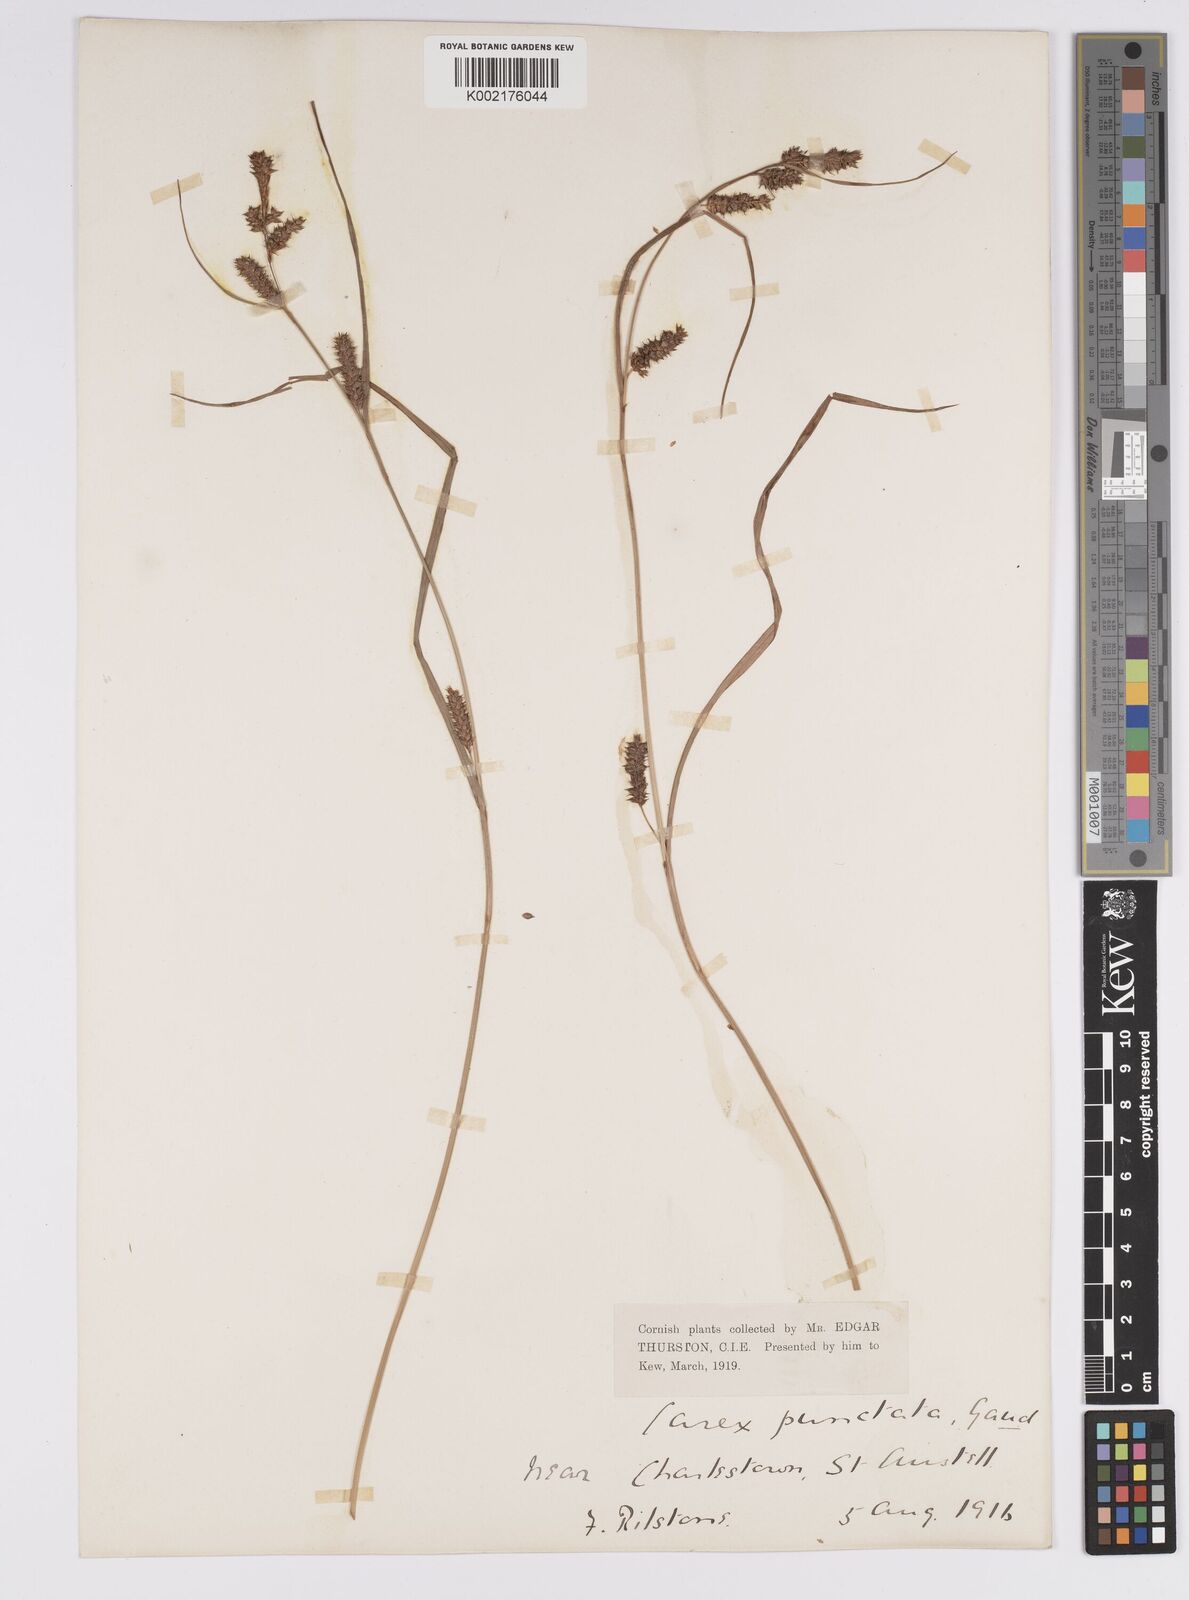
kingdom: Plantae
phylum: Tracheophyta
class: Liliopsida
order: Poales
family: Cyperaceae
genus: Carex
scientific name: Carex punctata
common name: Dotted sedge
